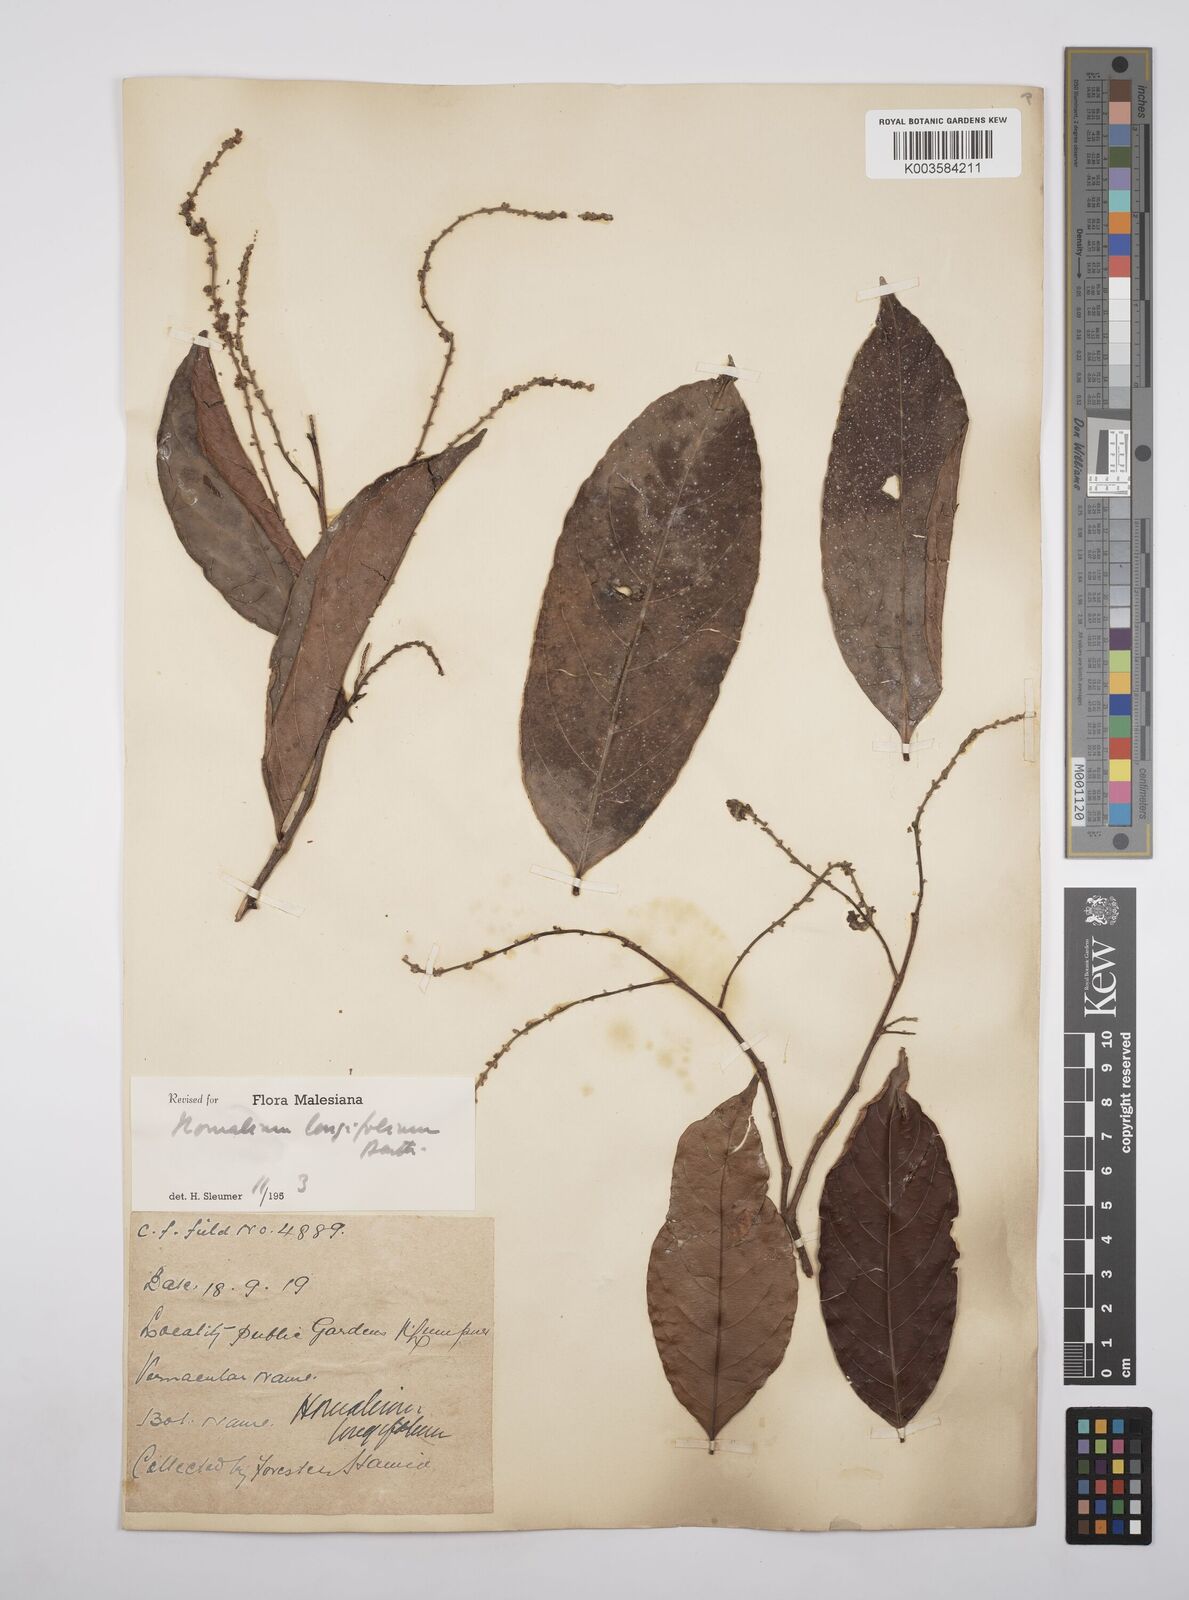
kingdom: Plantae
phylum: Tracheophyta
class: Magnoliopsida
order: Malpighiales
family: Salicaceae
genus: Homalium
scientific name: Homalium longifolium
